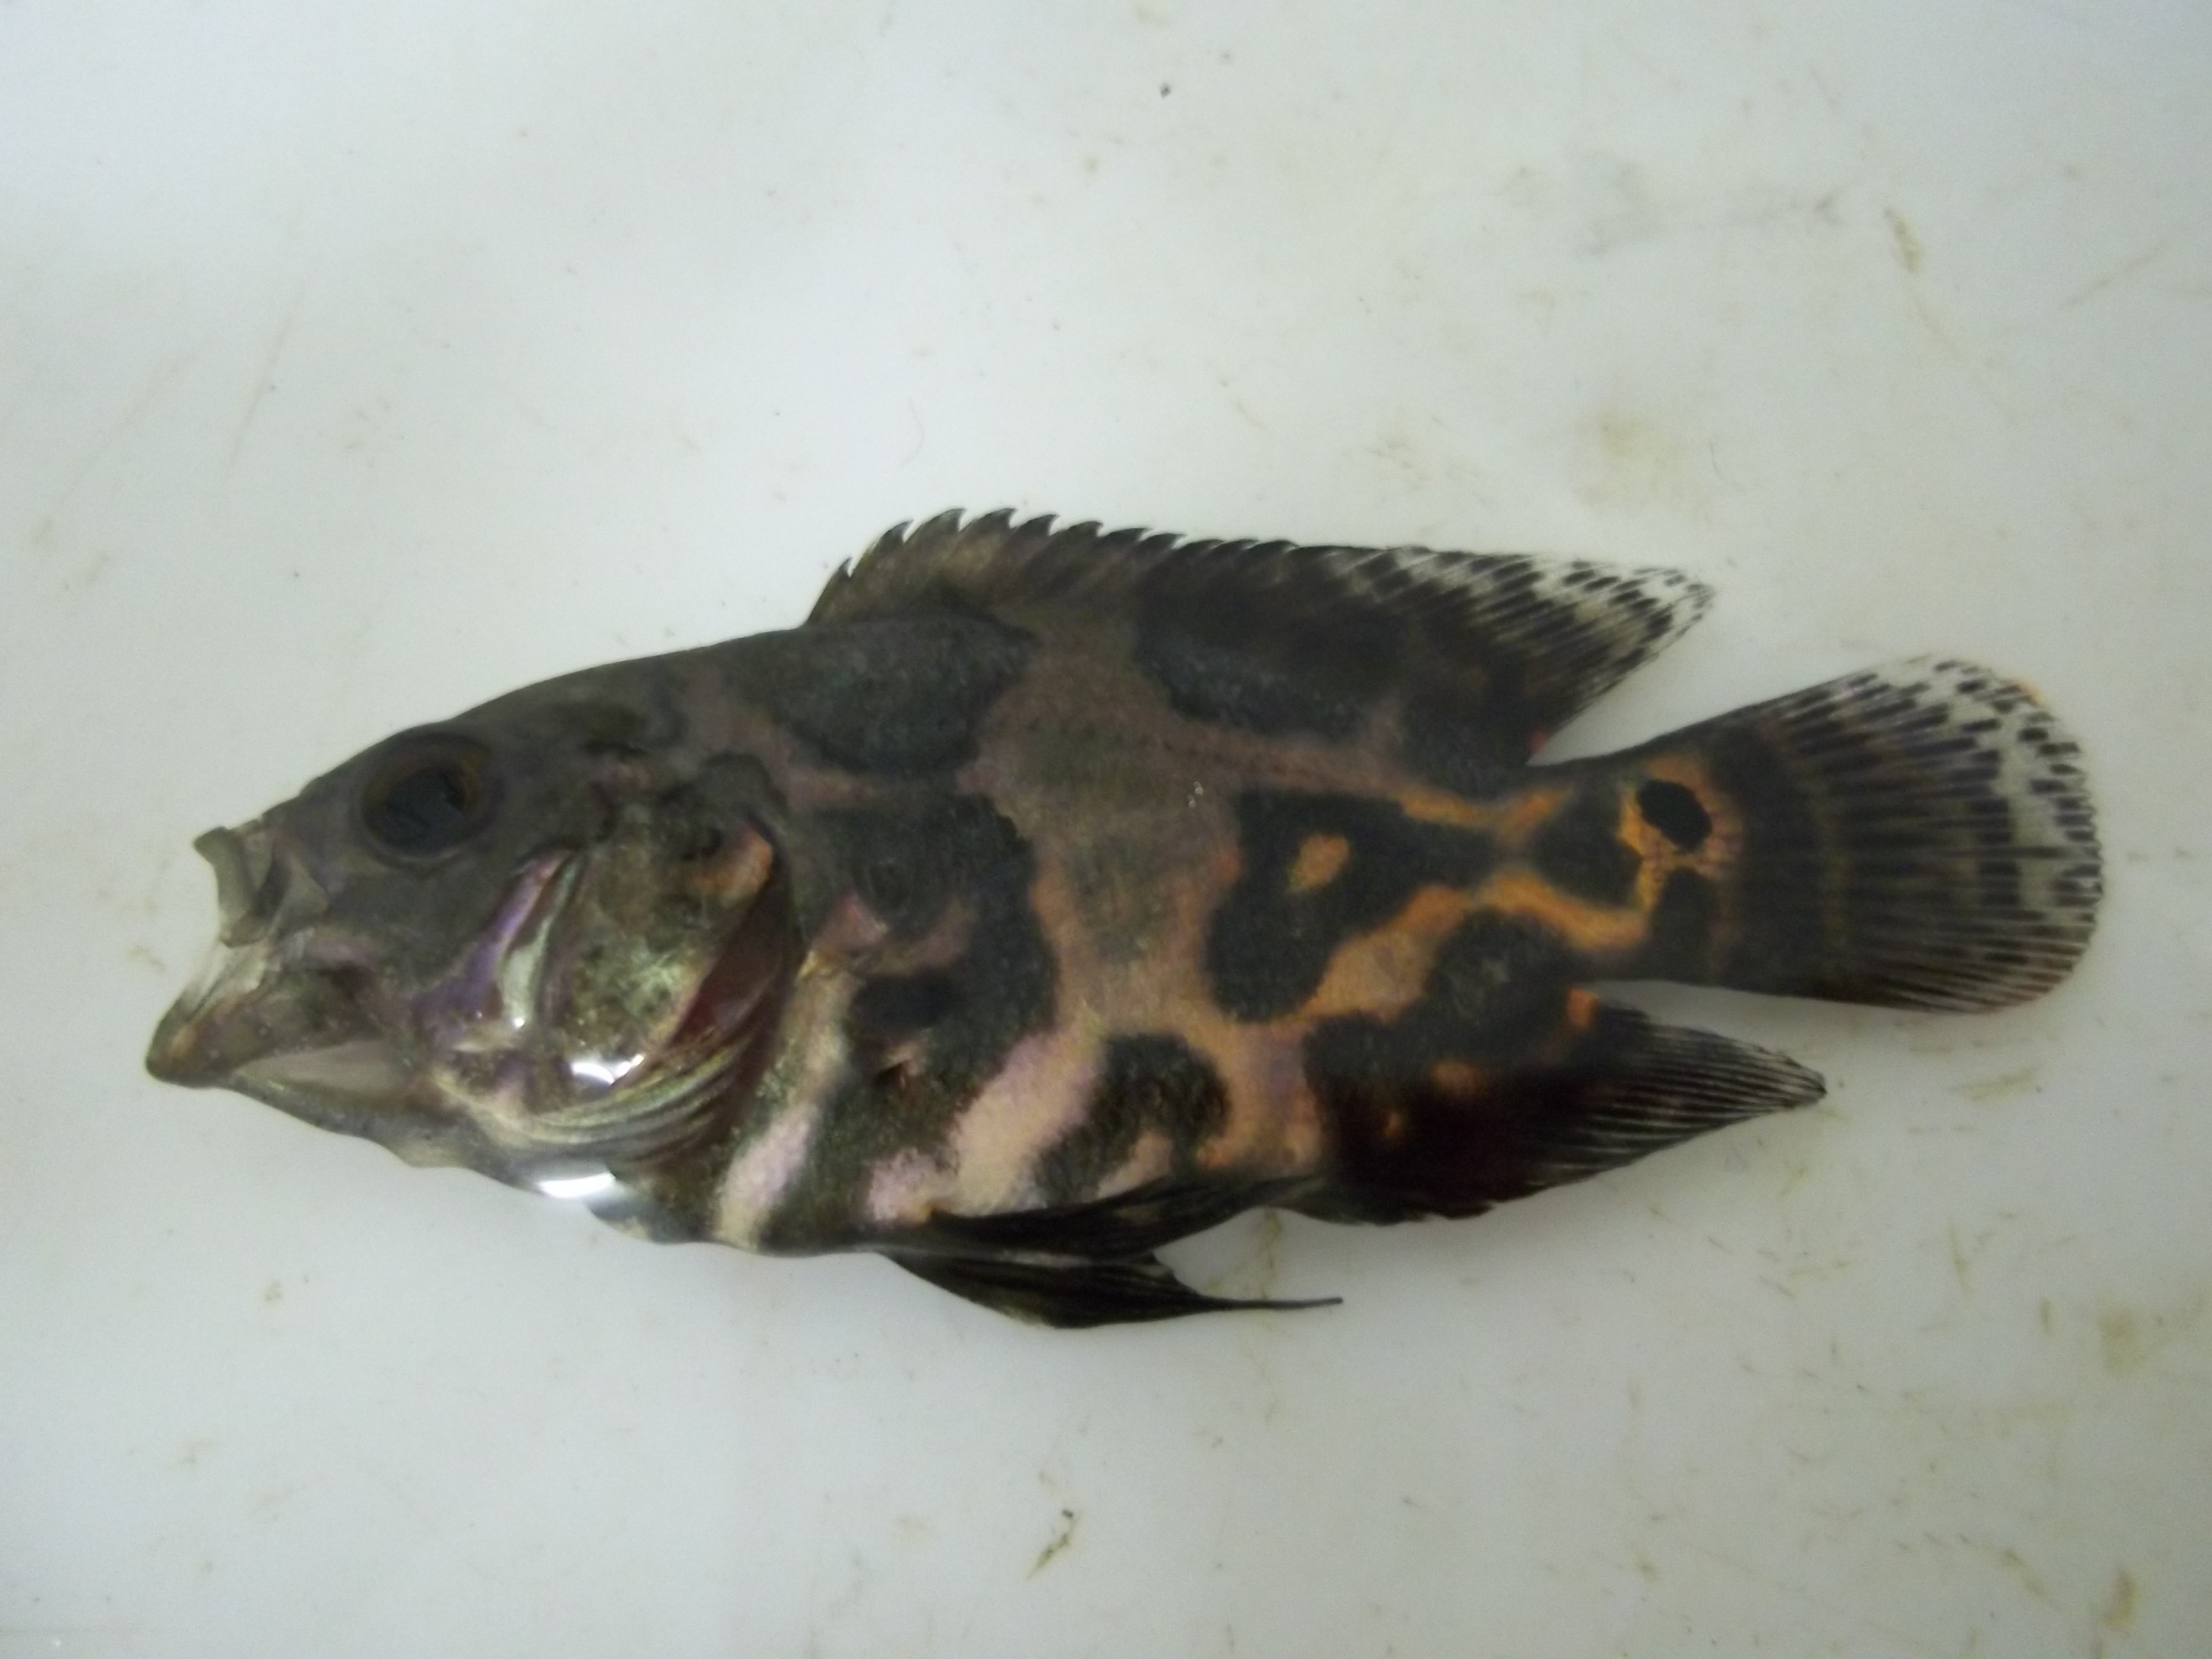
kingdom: Animalia
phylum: Chordata
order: Perciformes
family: Cichlidae
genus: Astronotus
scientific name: Astronotus ocellatus
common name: Oscar
